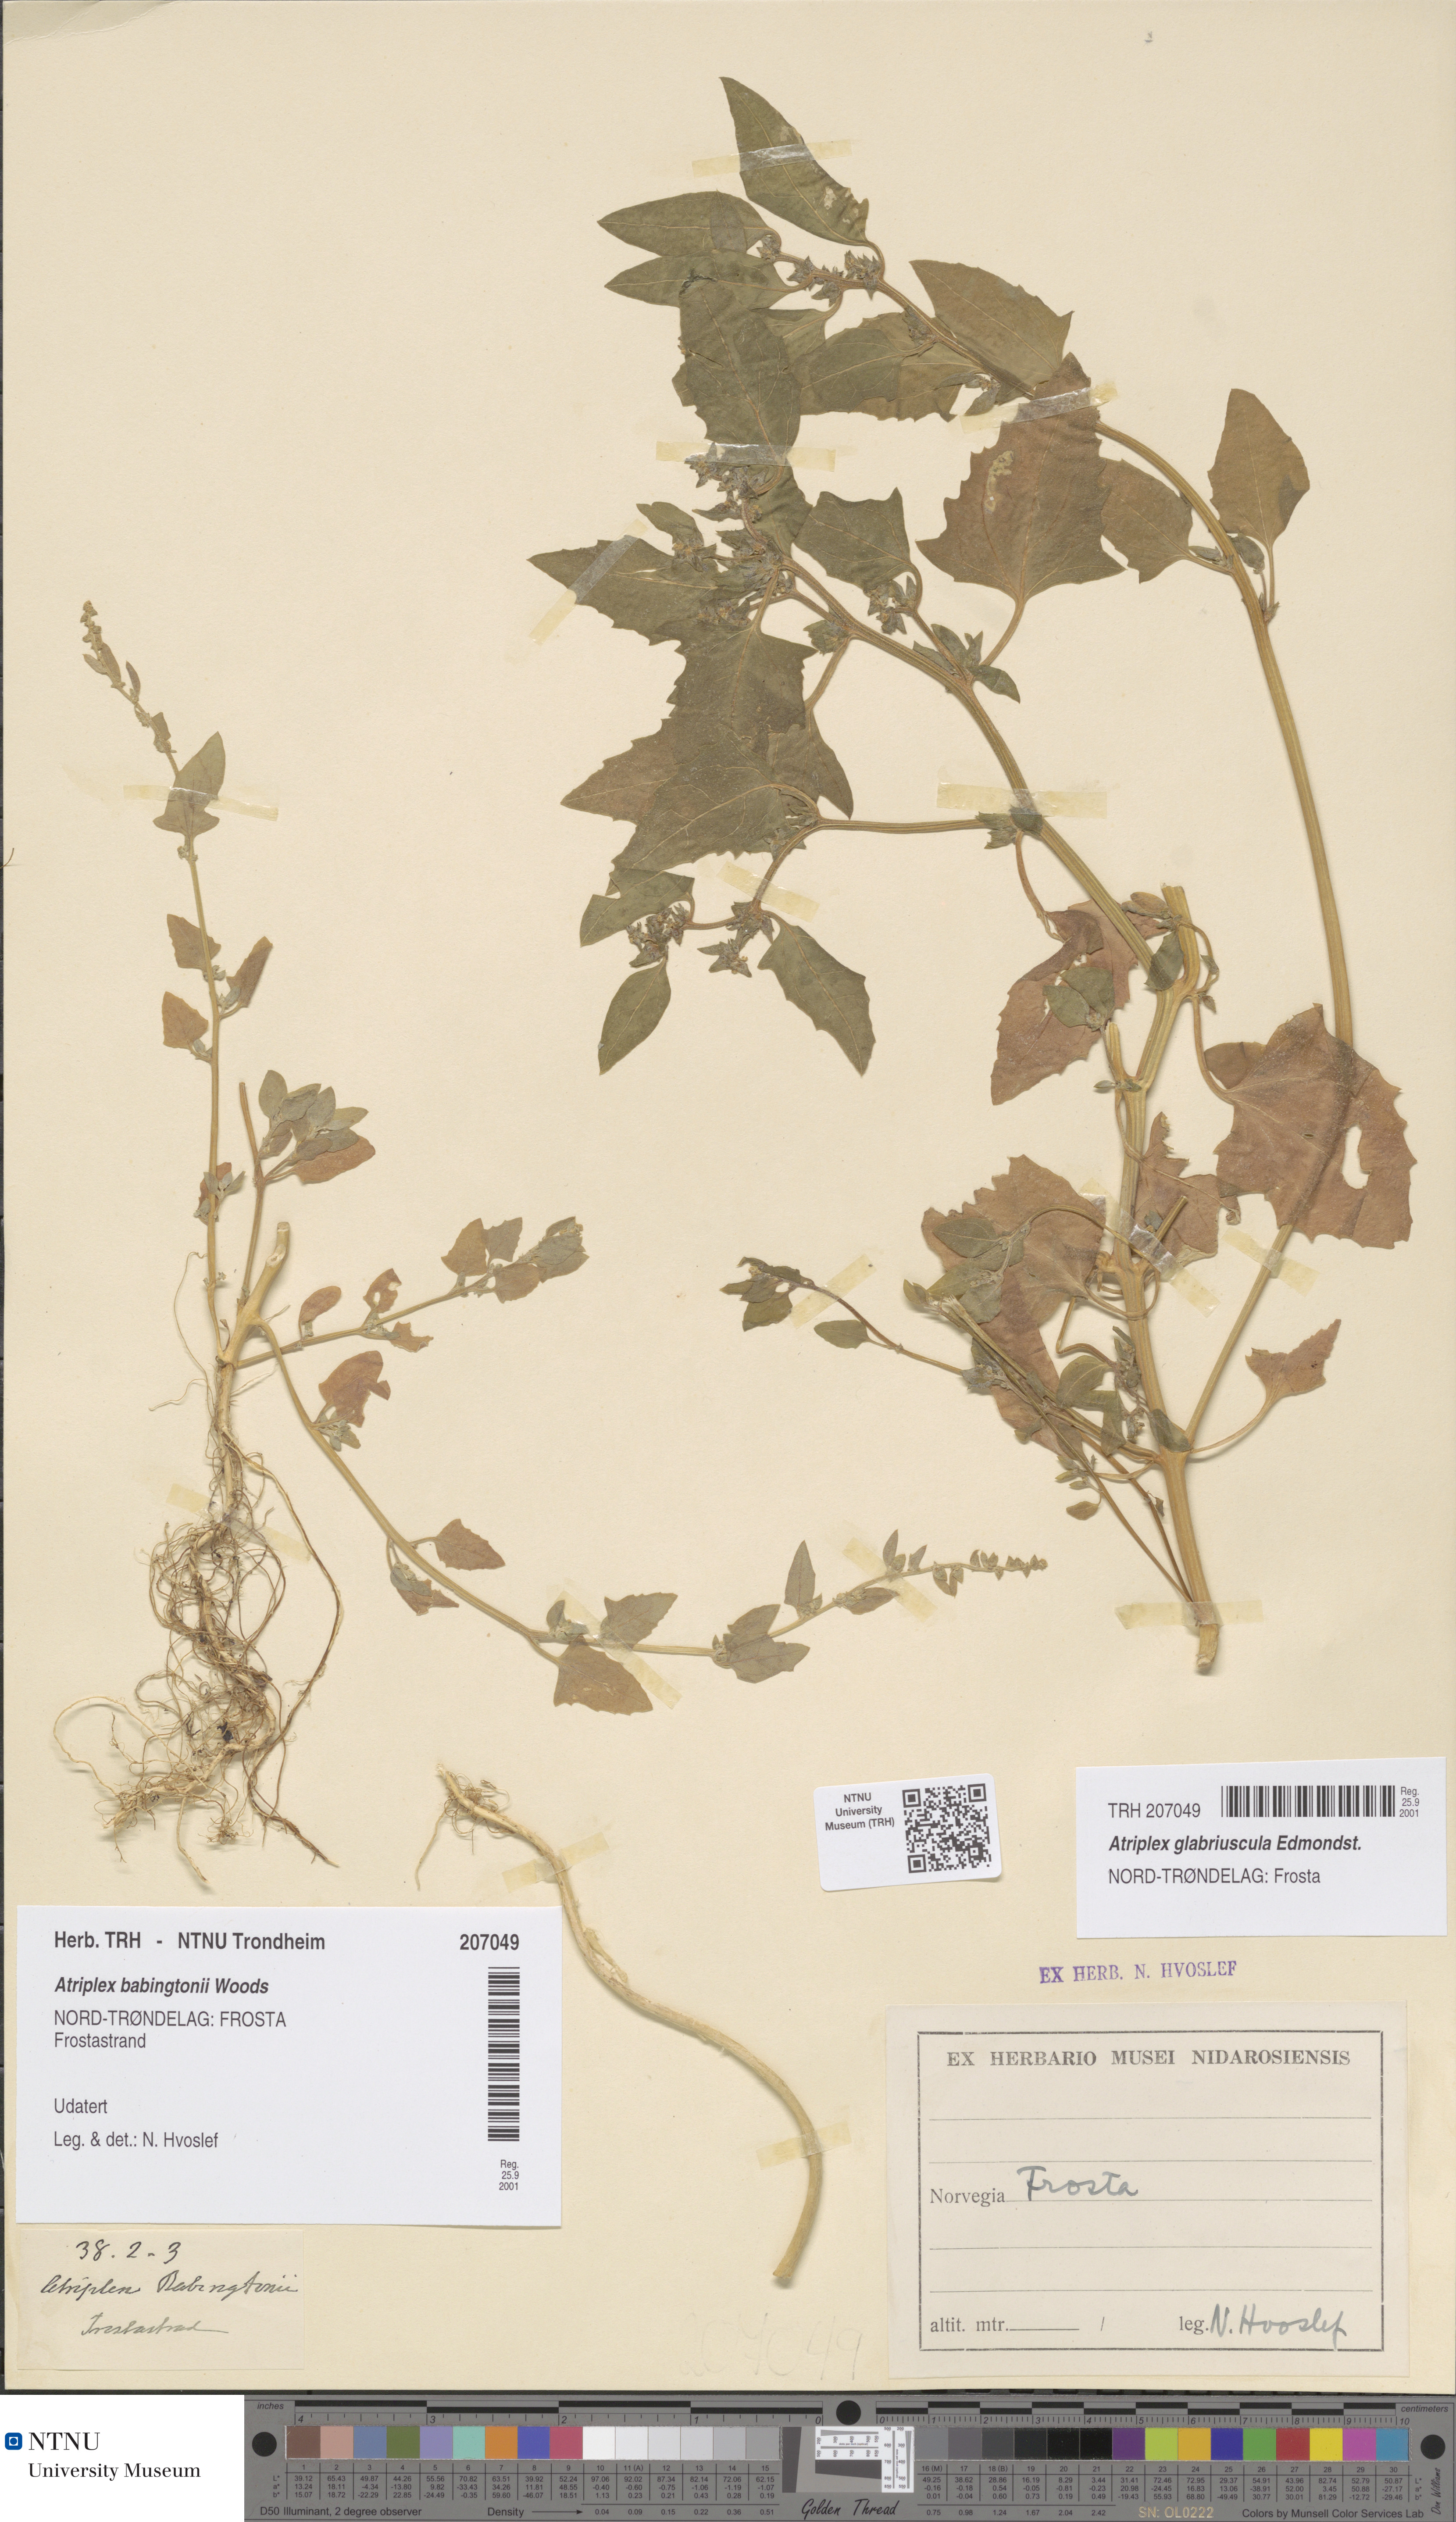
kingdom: Plantae
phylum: Tracheophyta
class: Magnoliopsida
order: Caryophyllales
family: Amaranthaceae
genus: Atriplex
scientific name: Atriplex glabriuscula
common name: Babington's orache
